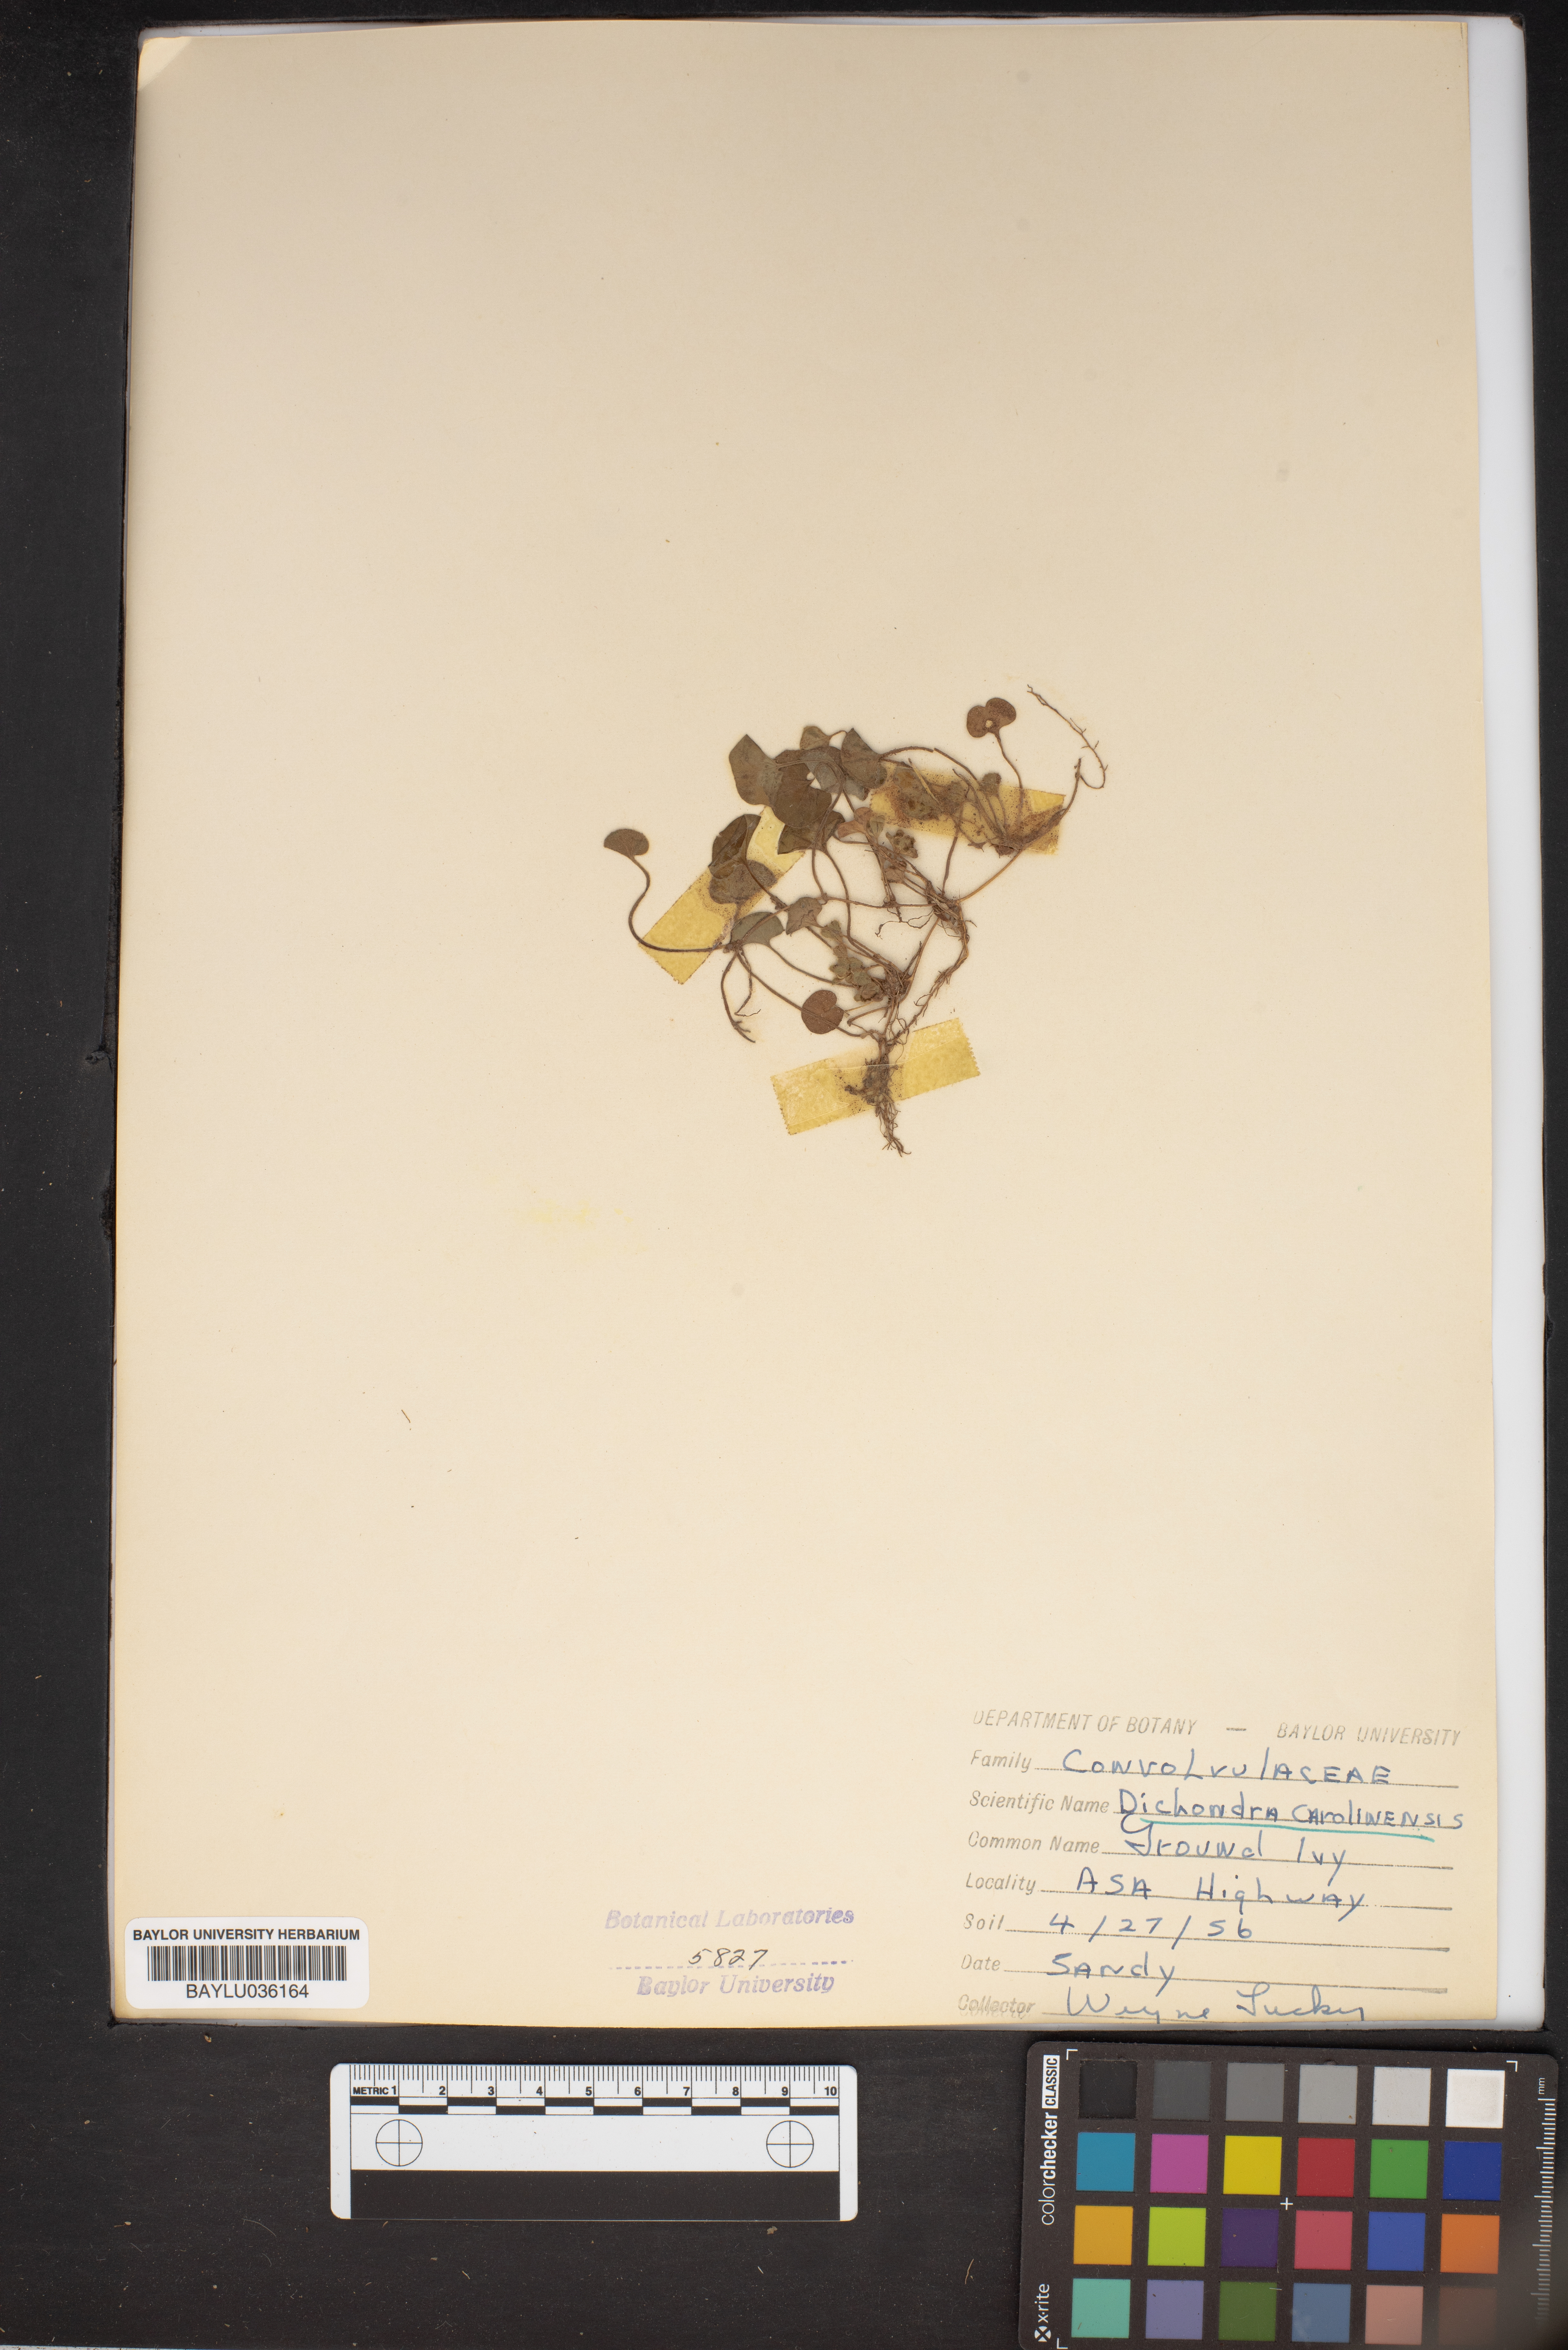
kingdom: Plantae
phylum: Tracheophyta
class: Magnoliopsida
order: Solanales
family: Convolvulaceae
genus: Dichondra
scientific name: Dichondra carolinensis
